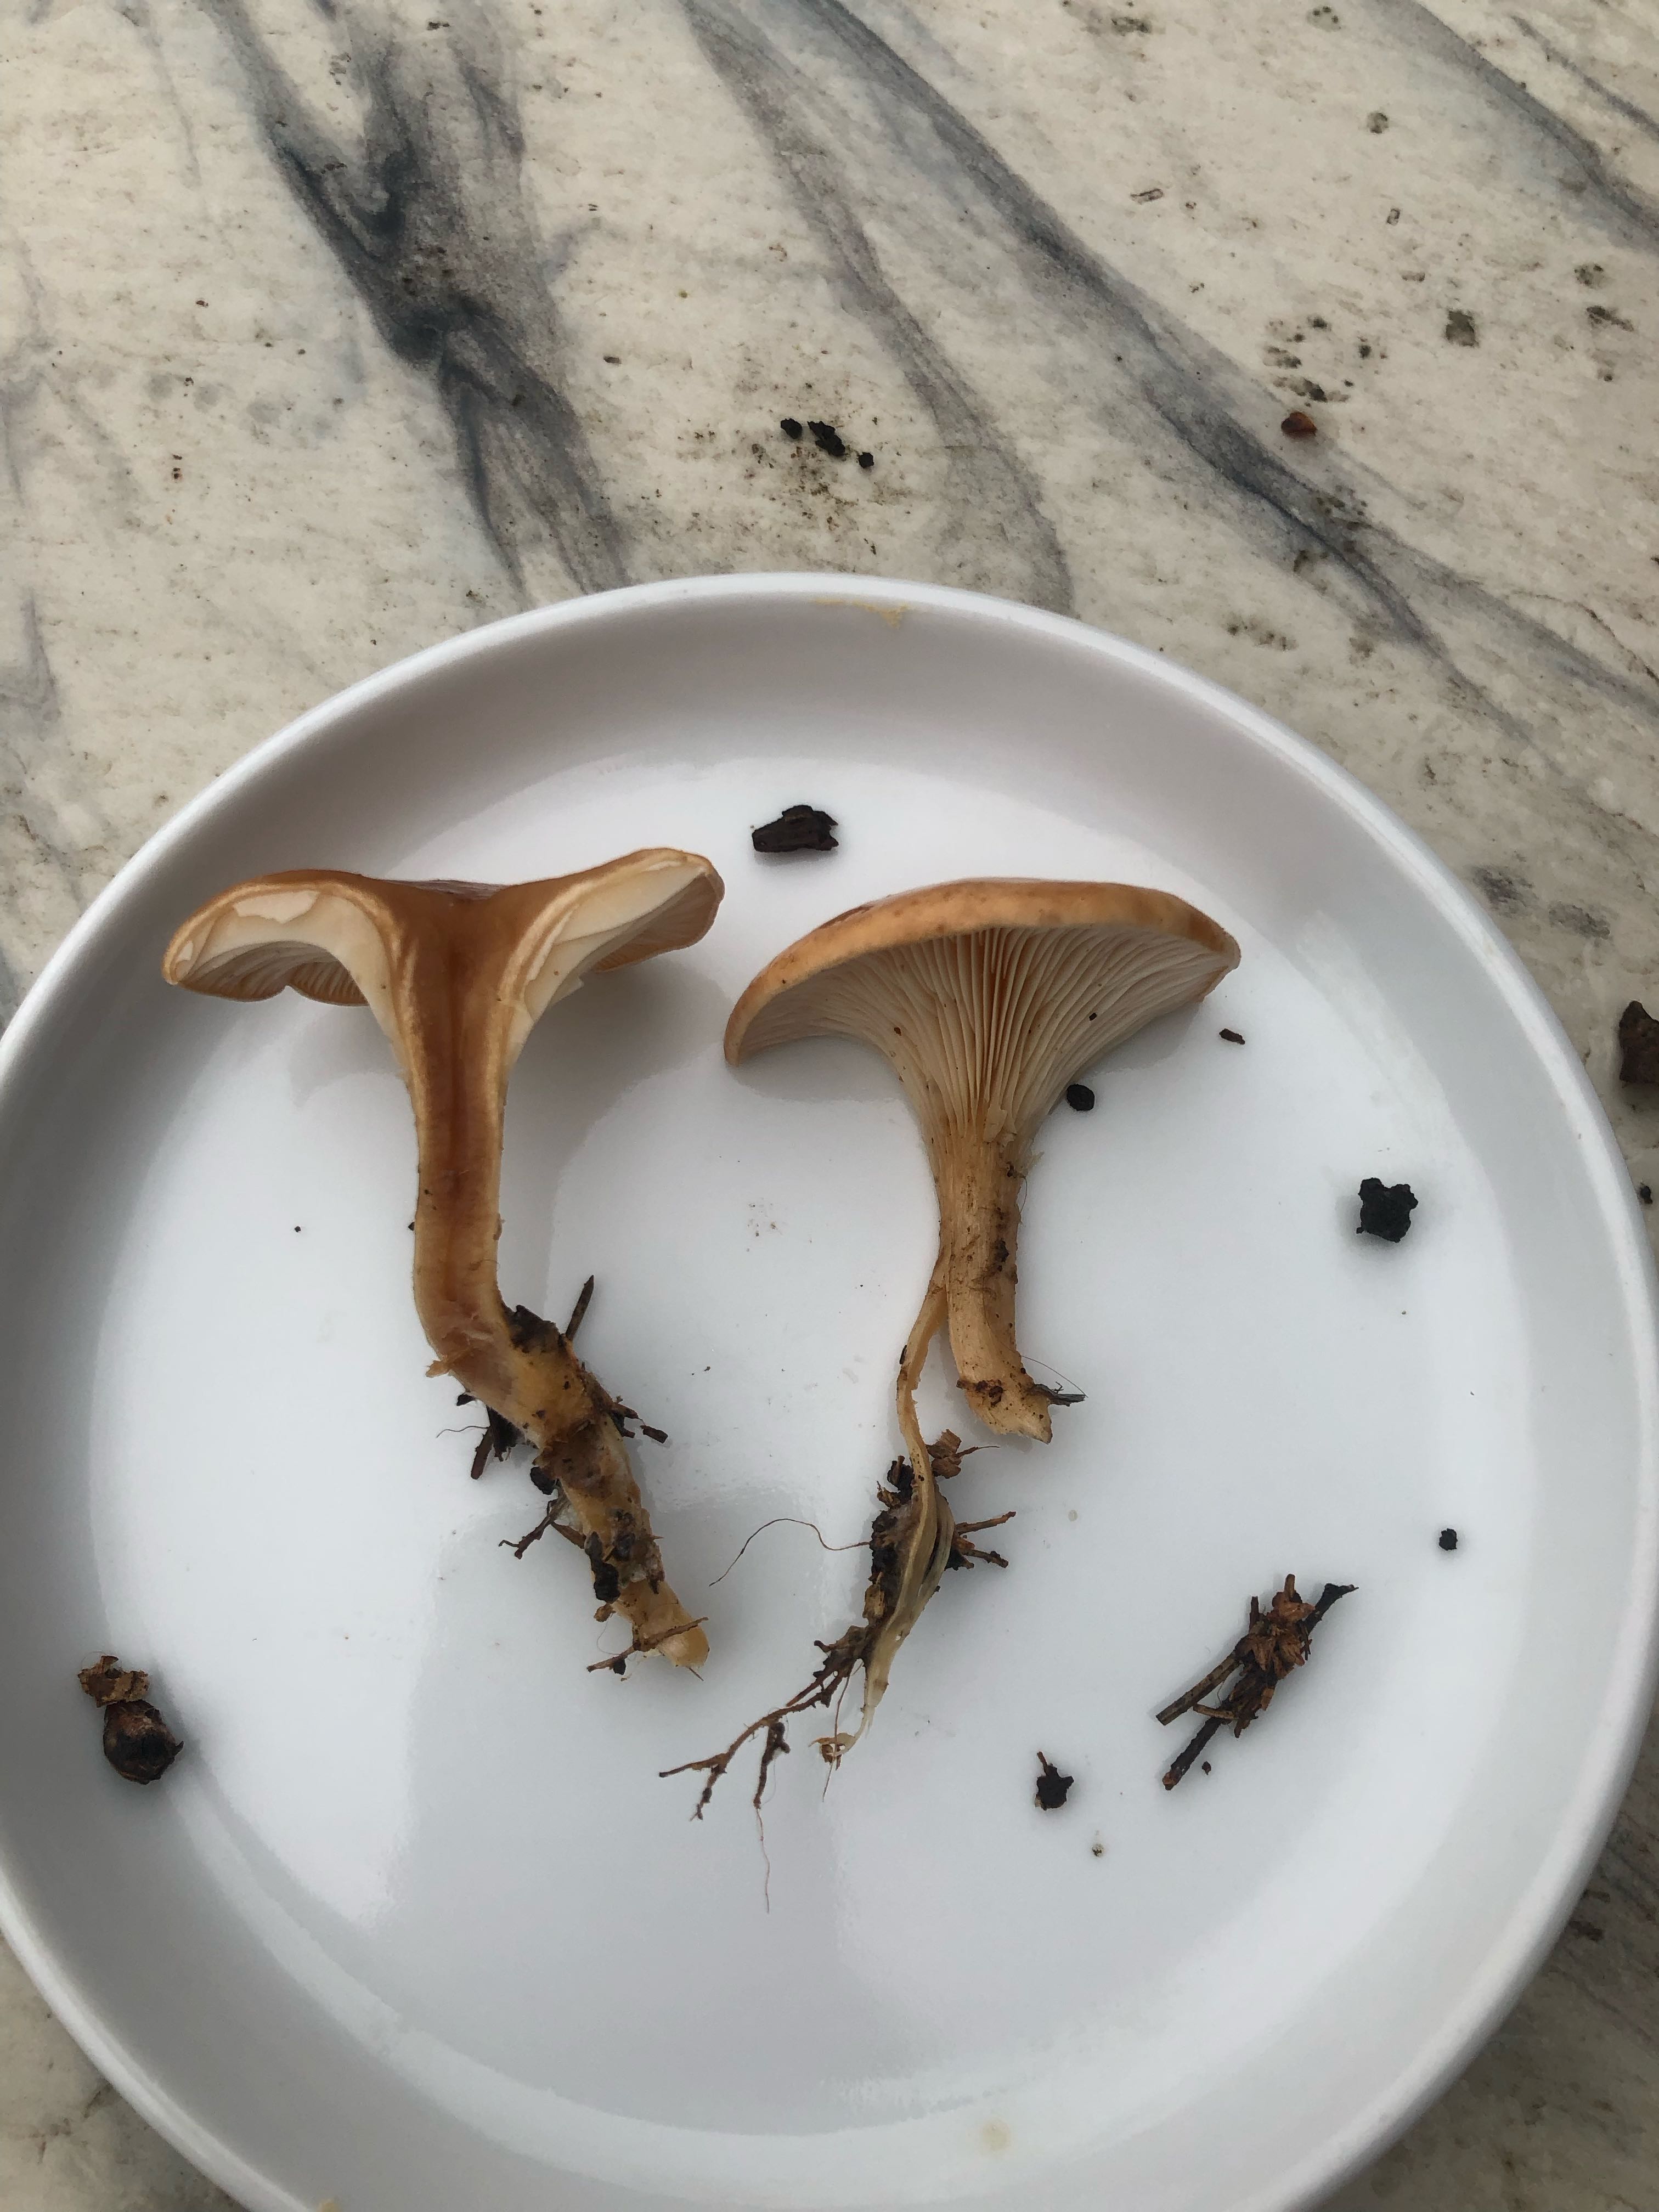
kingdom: Fungi
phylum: Basidiomycota
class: Agaricomycetes
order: Agaricales
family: Tricholomataceae
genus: Paralepista
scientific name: Paralepista flaccida
